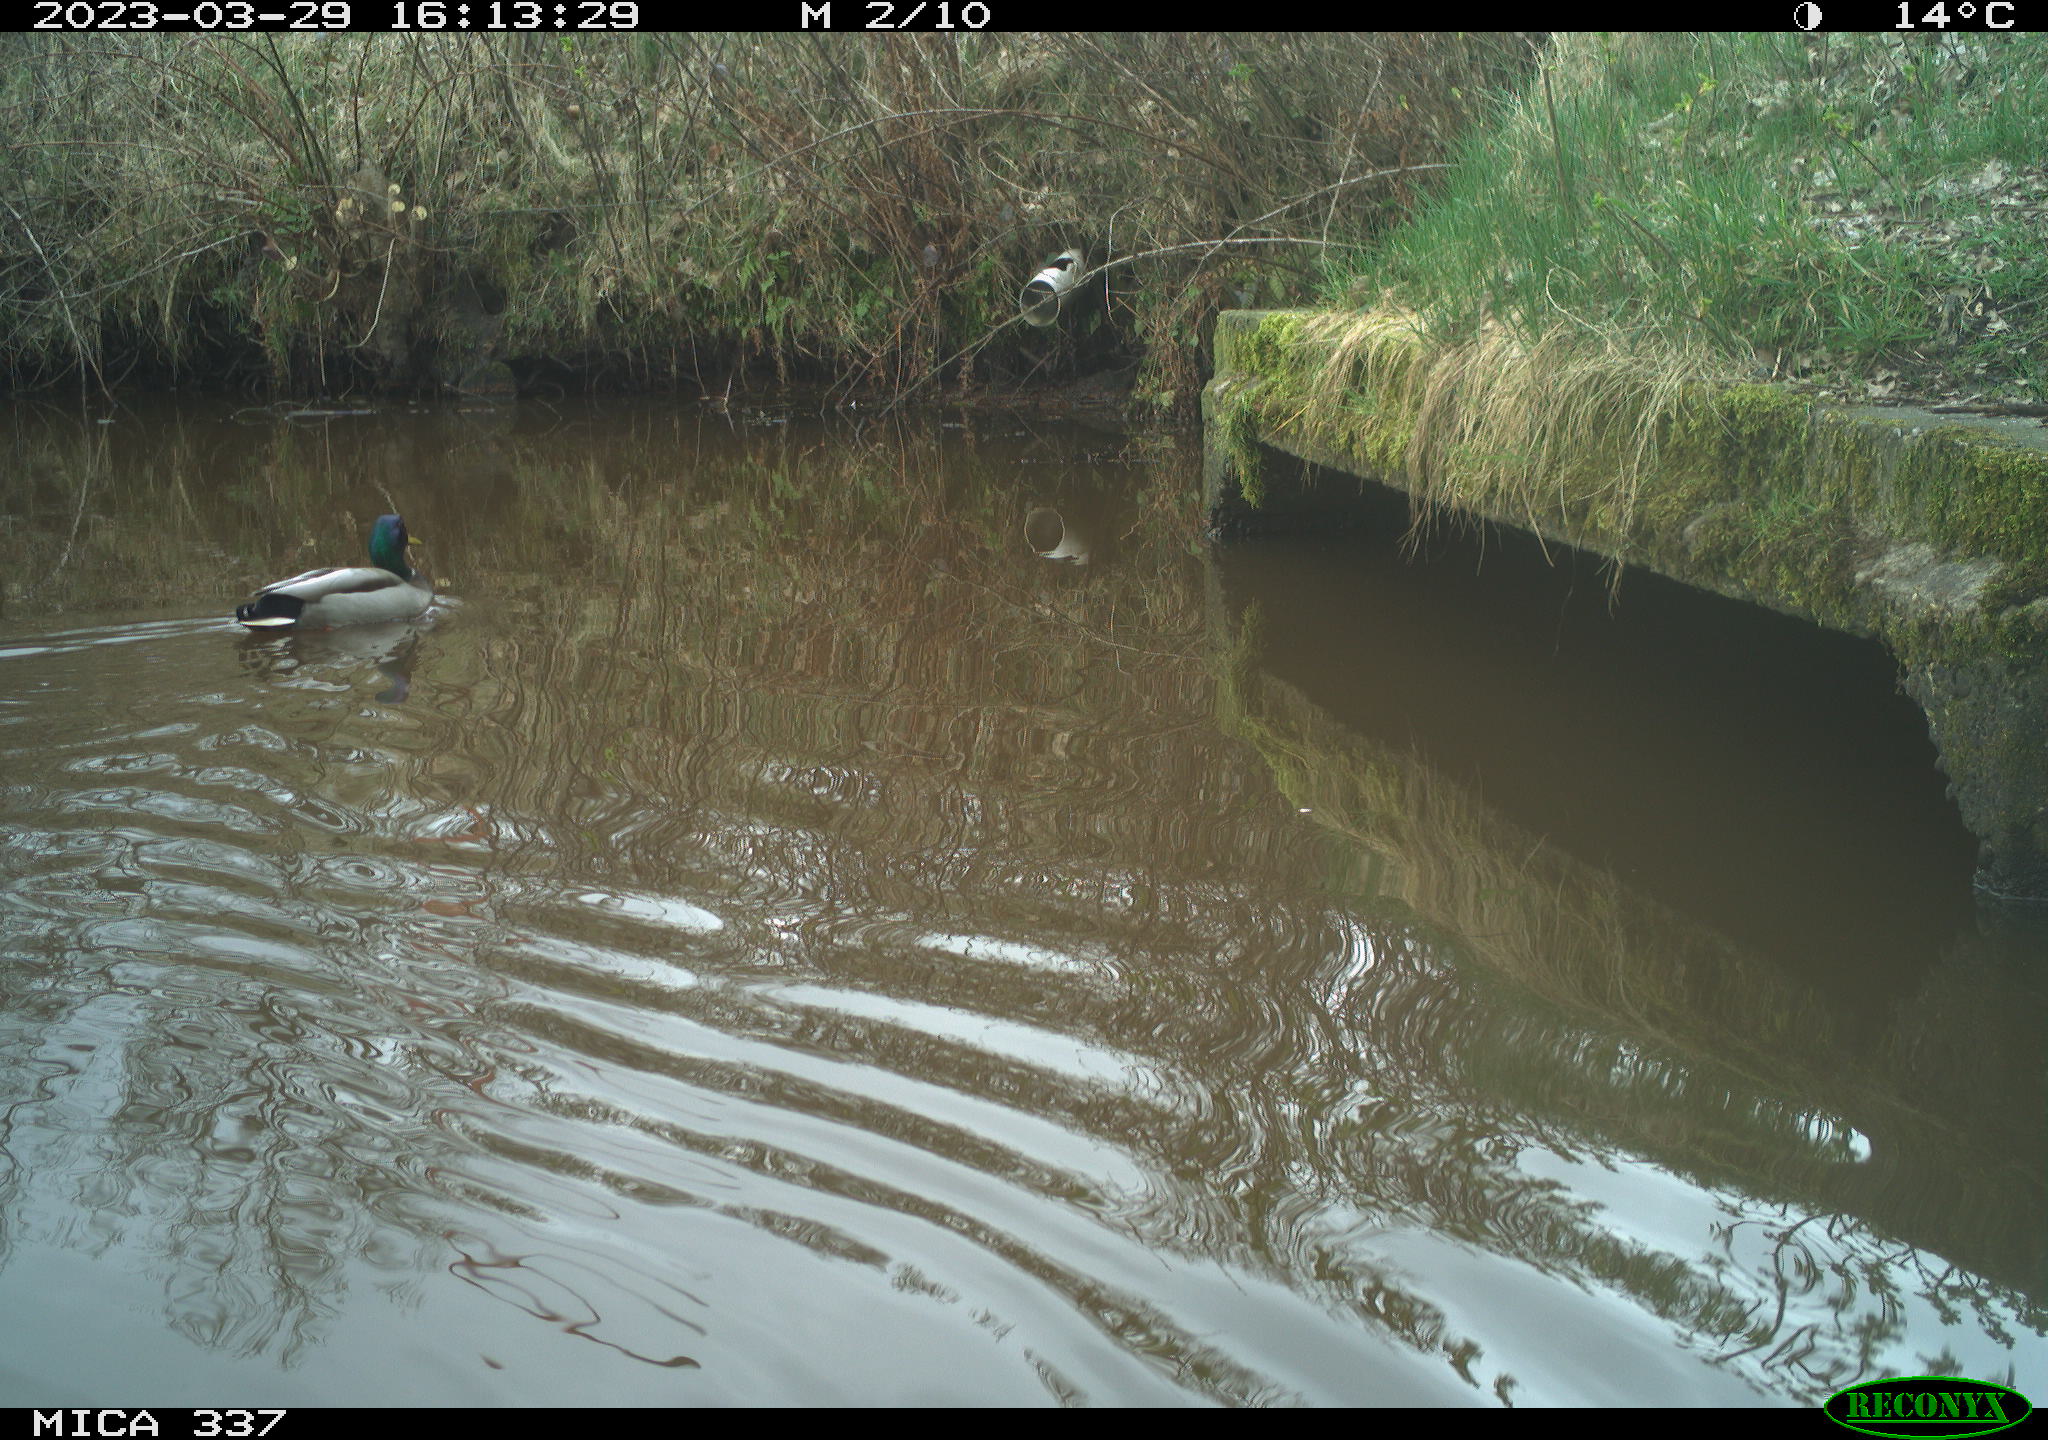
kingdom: Animalia
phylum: Chordata
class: Aves
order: Anseriformes
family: Anatidae
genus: Anas
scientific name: Anas
